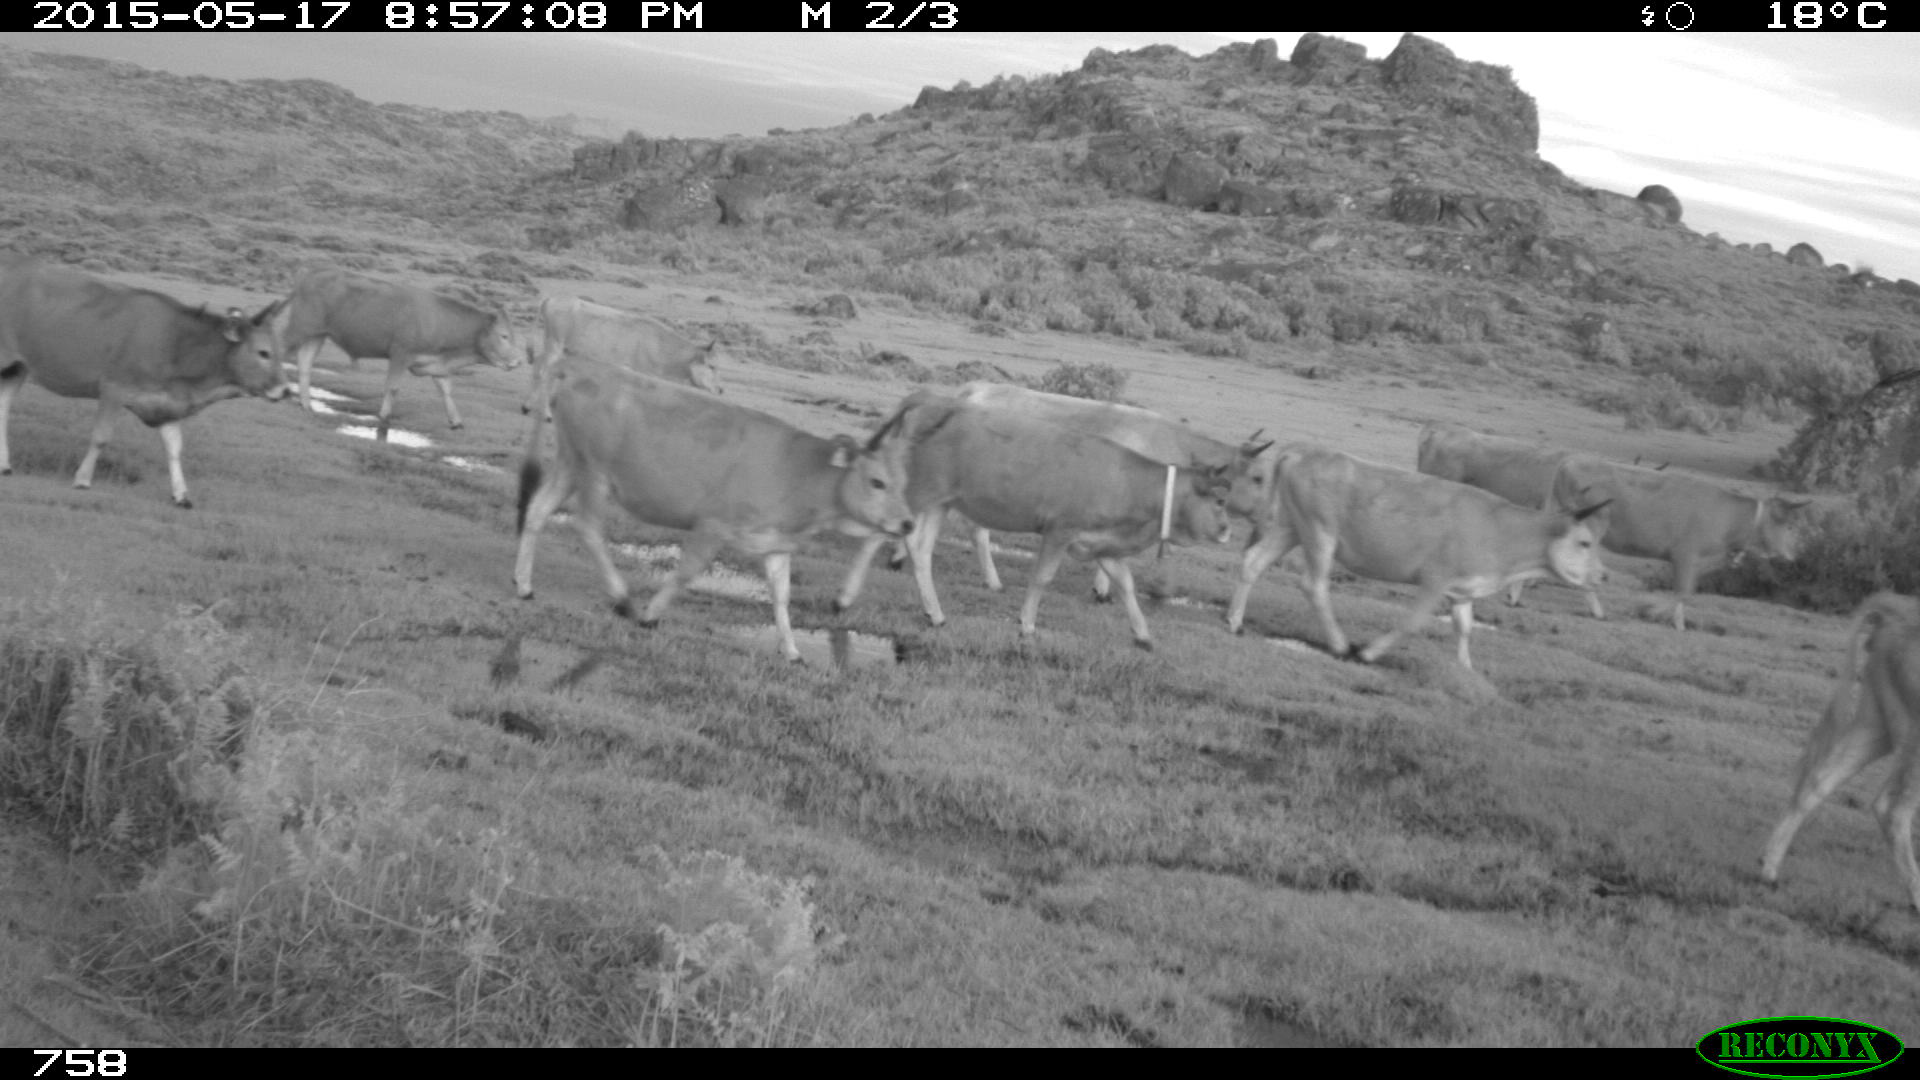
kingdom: Animalia
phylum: Chordata
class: Mammalia
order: Artiodactyla
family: Bovidae
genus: Bos
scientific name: Bos taurus
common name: Domesticated cattle
